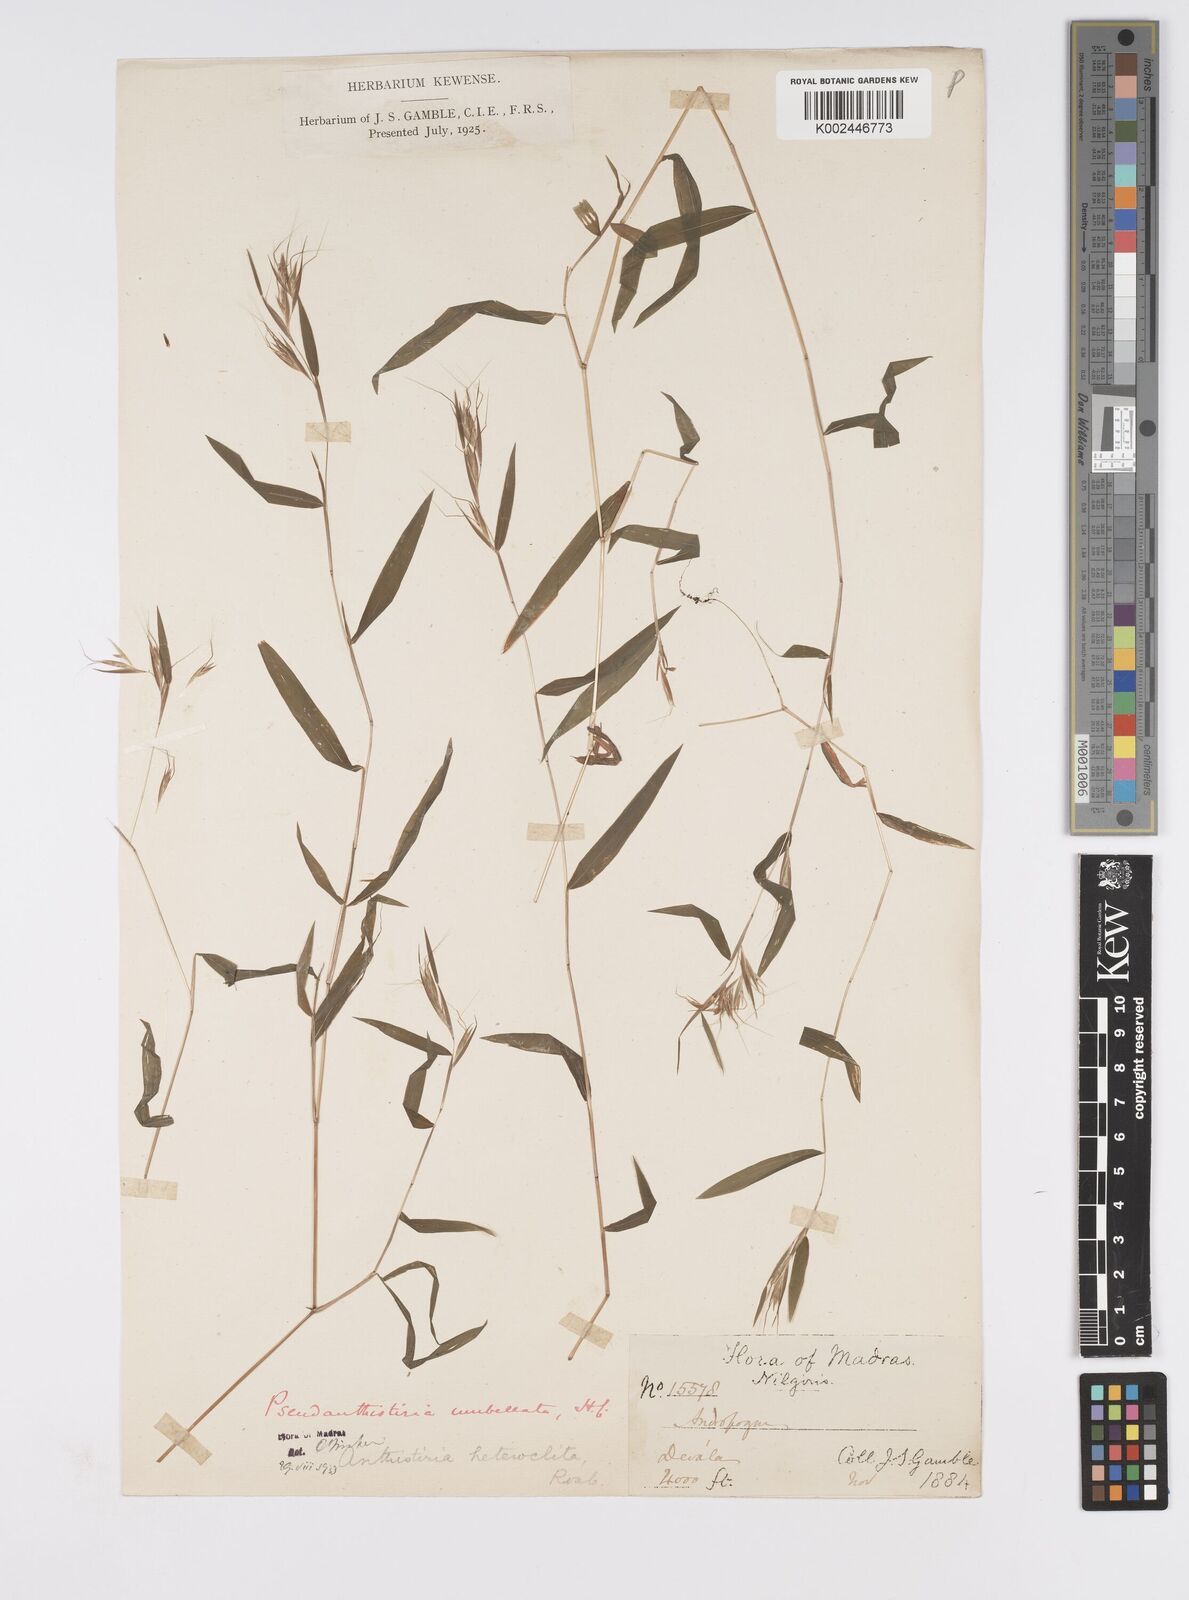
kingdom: Plantae
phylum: Tracheophyta
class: Liliopsida
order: Poales
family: Poaceae
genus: Pseudanthistiria
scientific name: Pseudanthistiria umbellata
